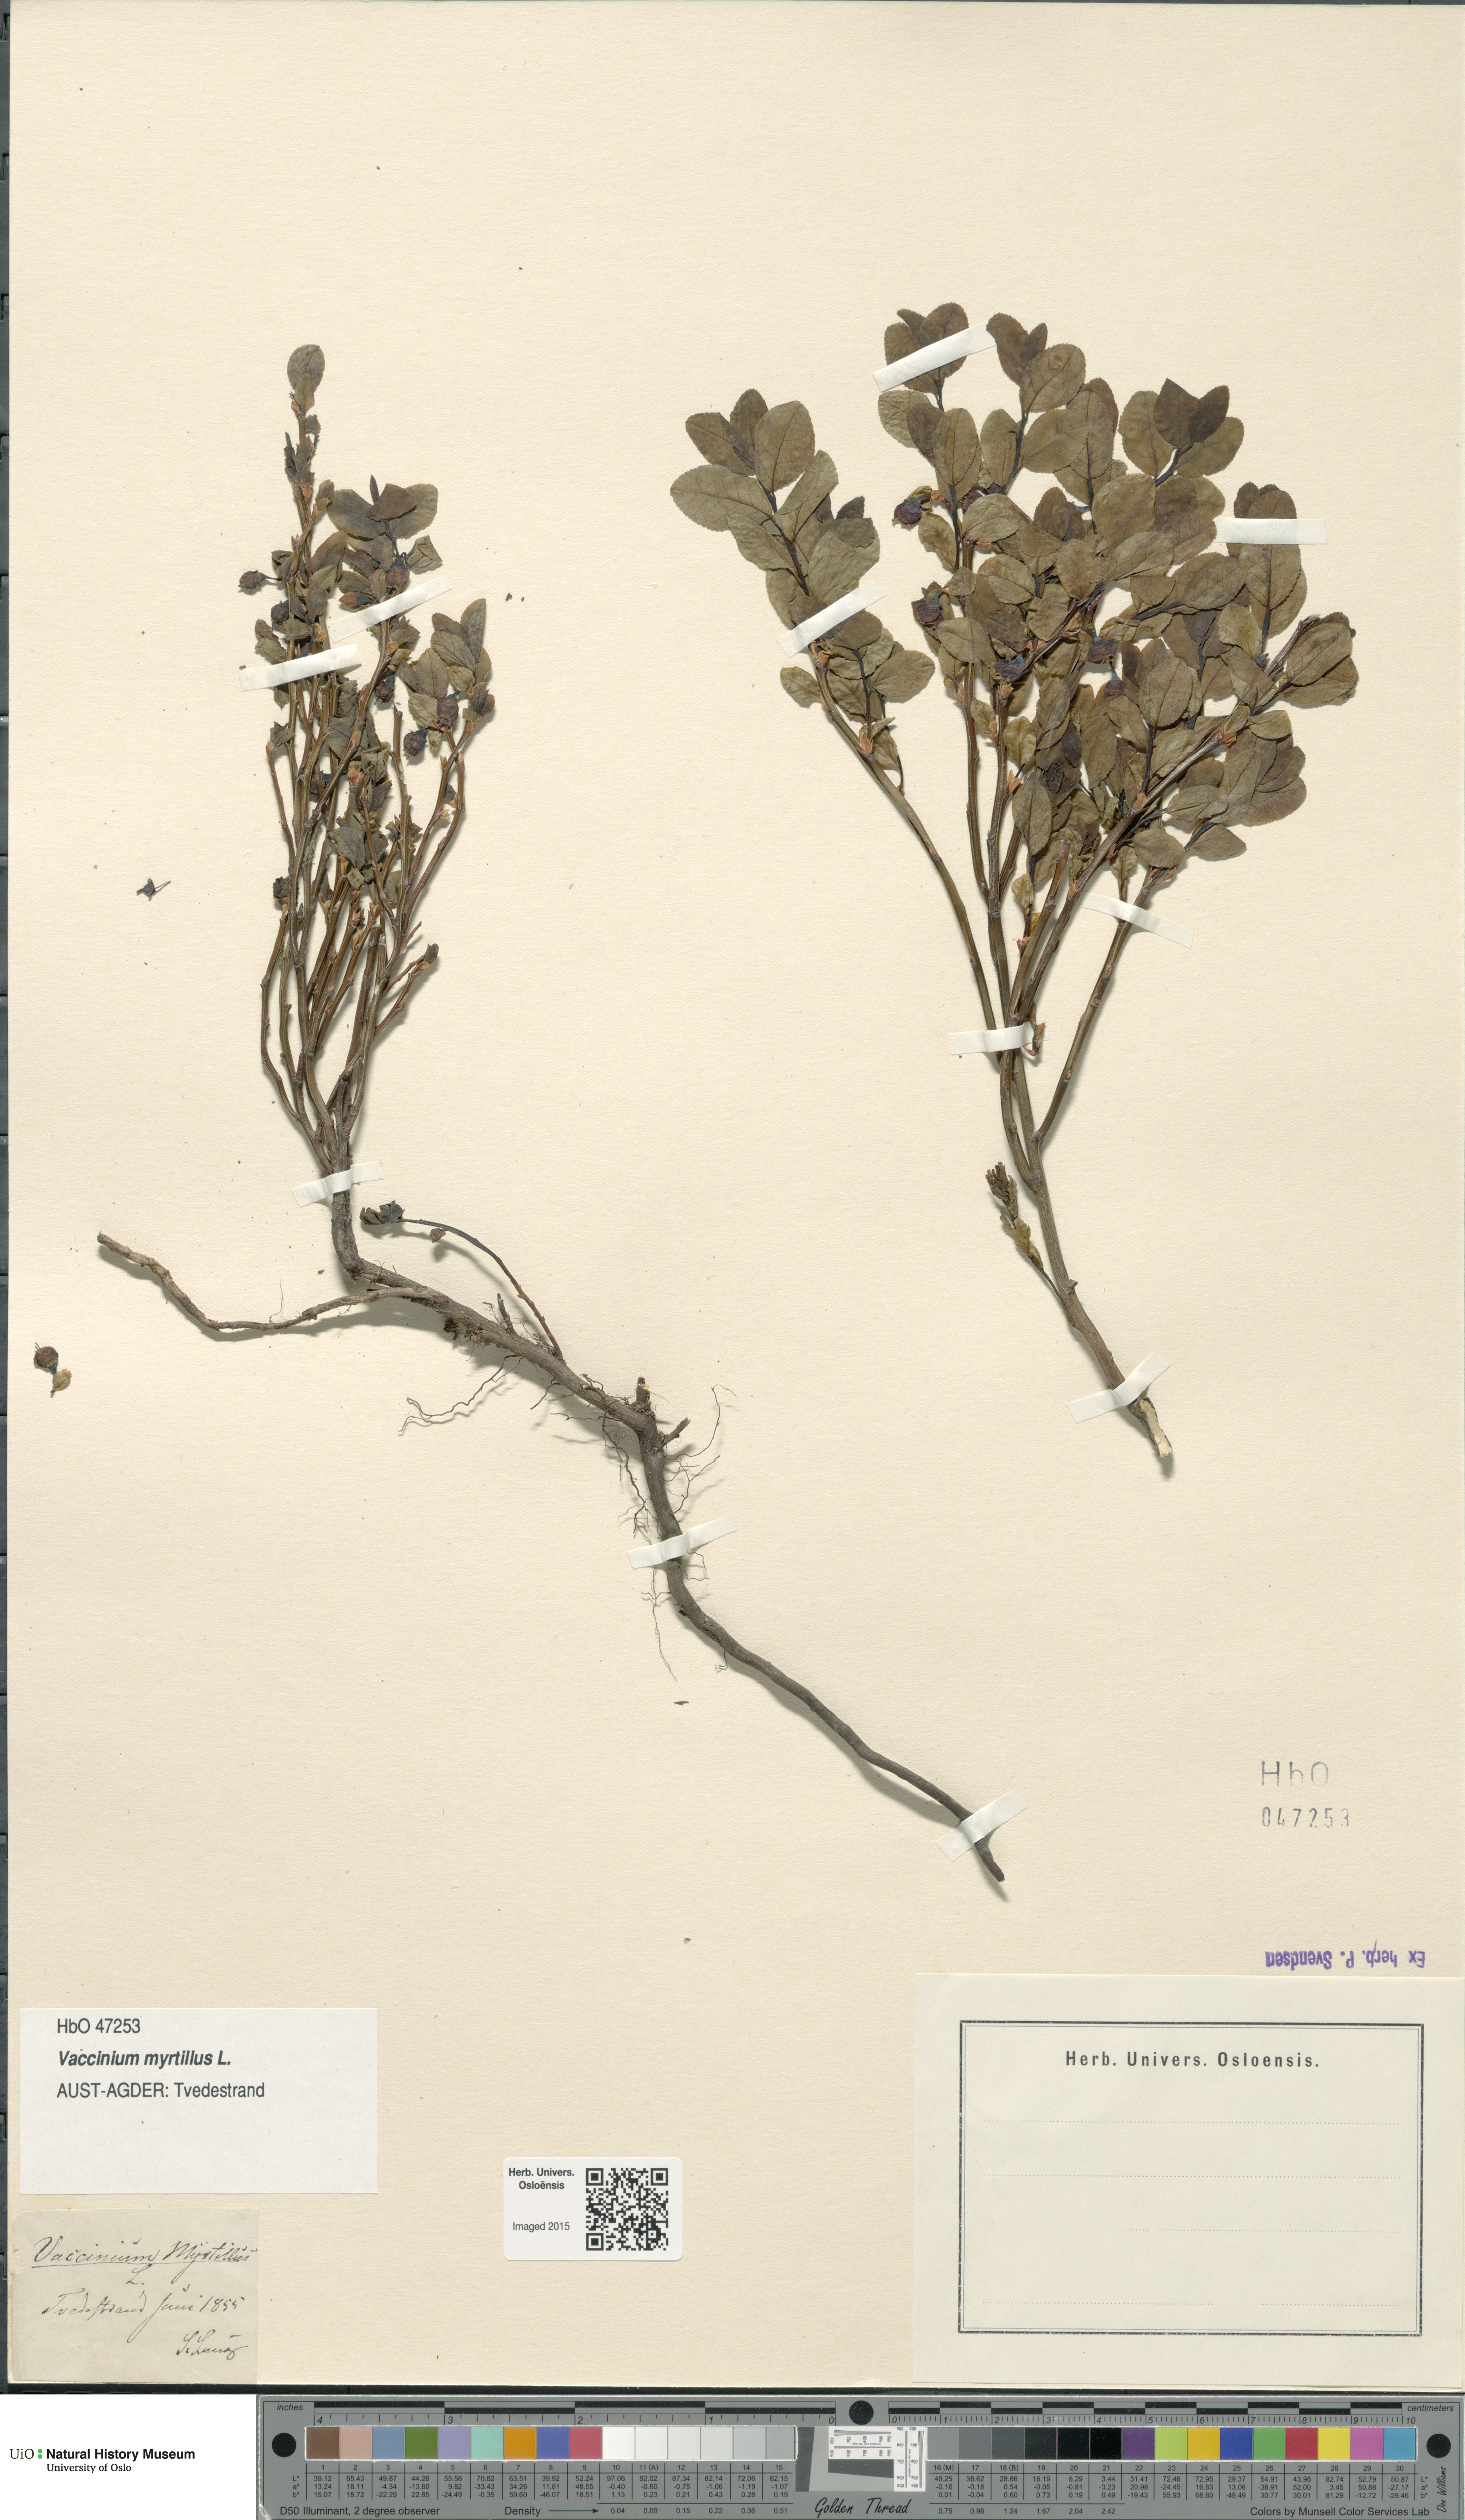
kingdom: Plantae
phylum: Tracheophyta
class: Magnoliopsida
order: Ericales
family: Ericaceae
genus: Vaccinium
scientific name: Vaccinium myrtillus
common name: Bilberry
